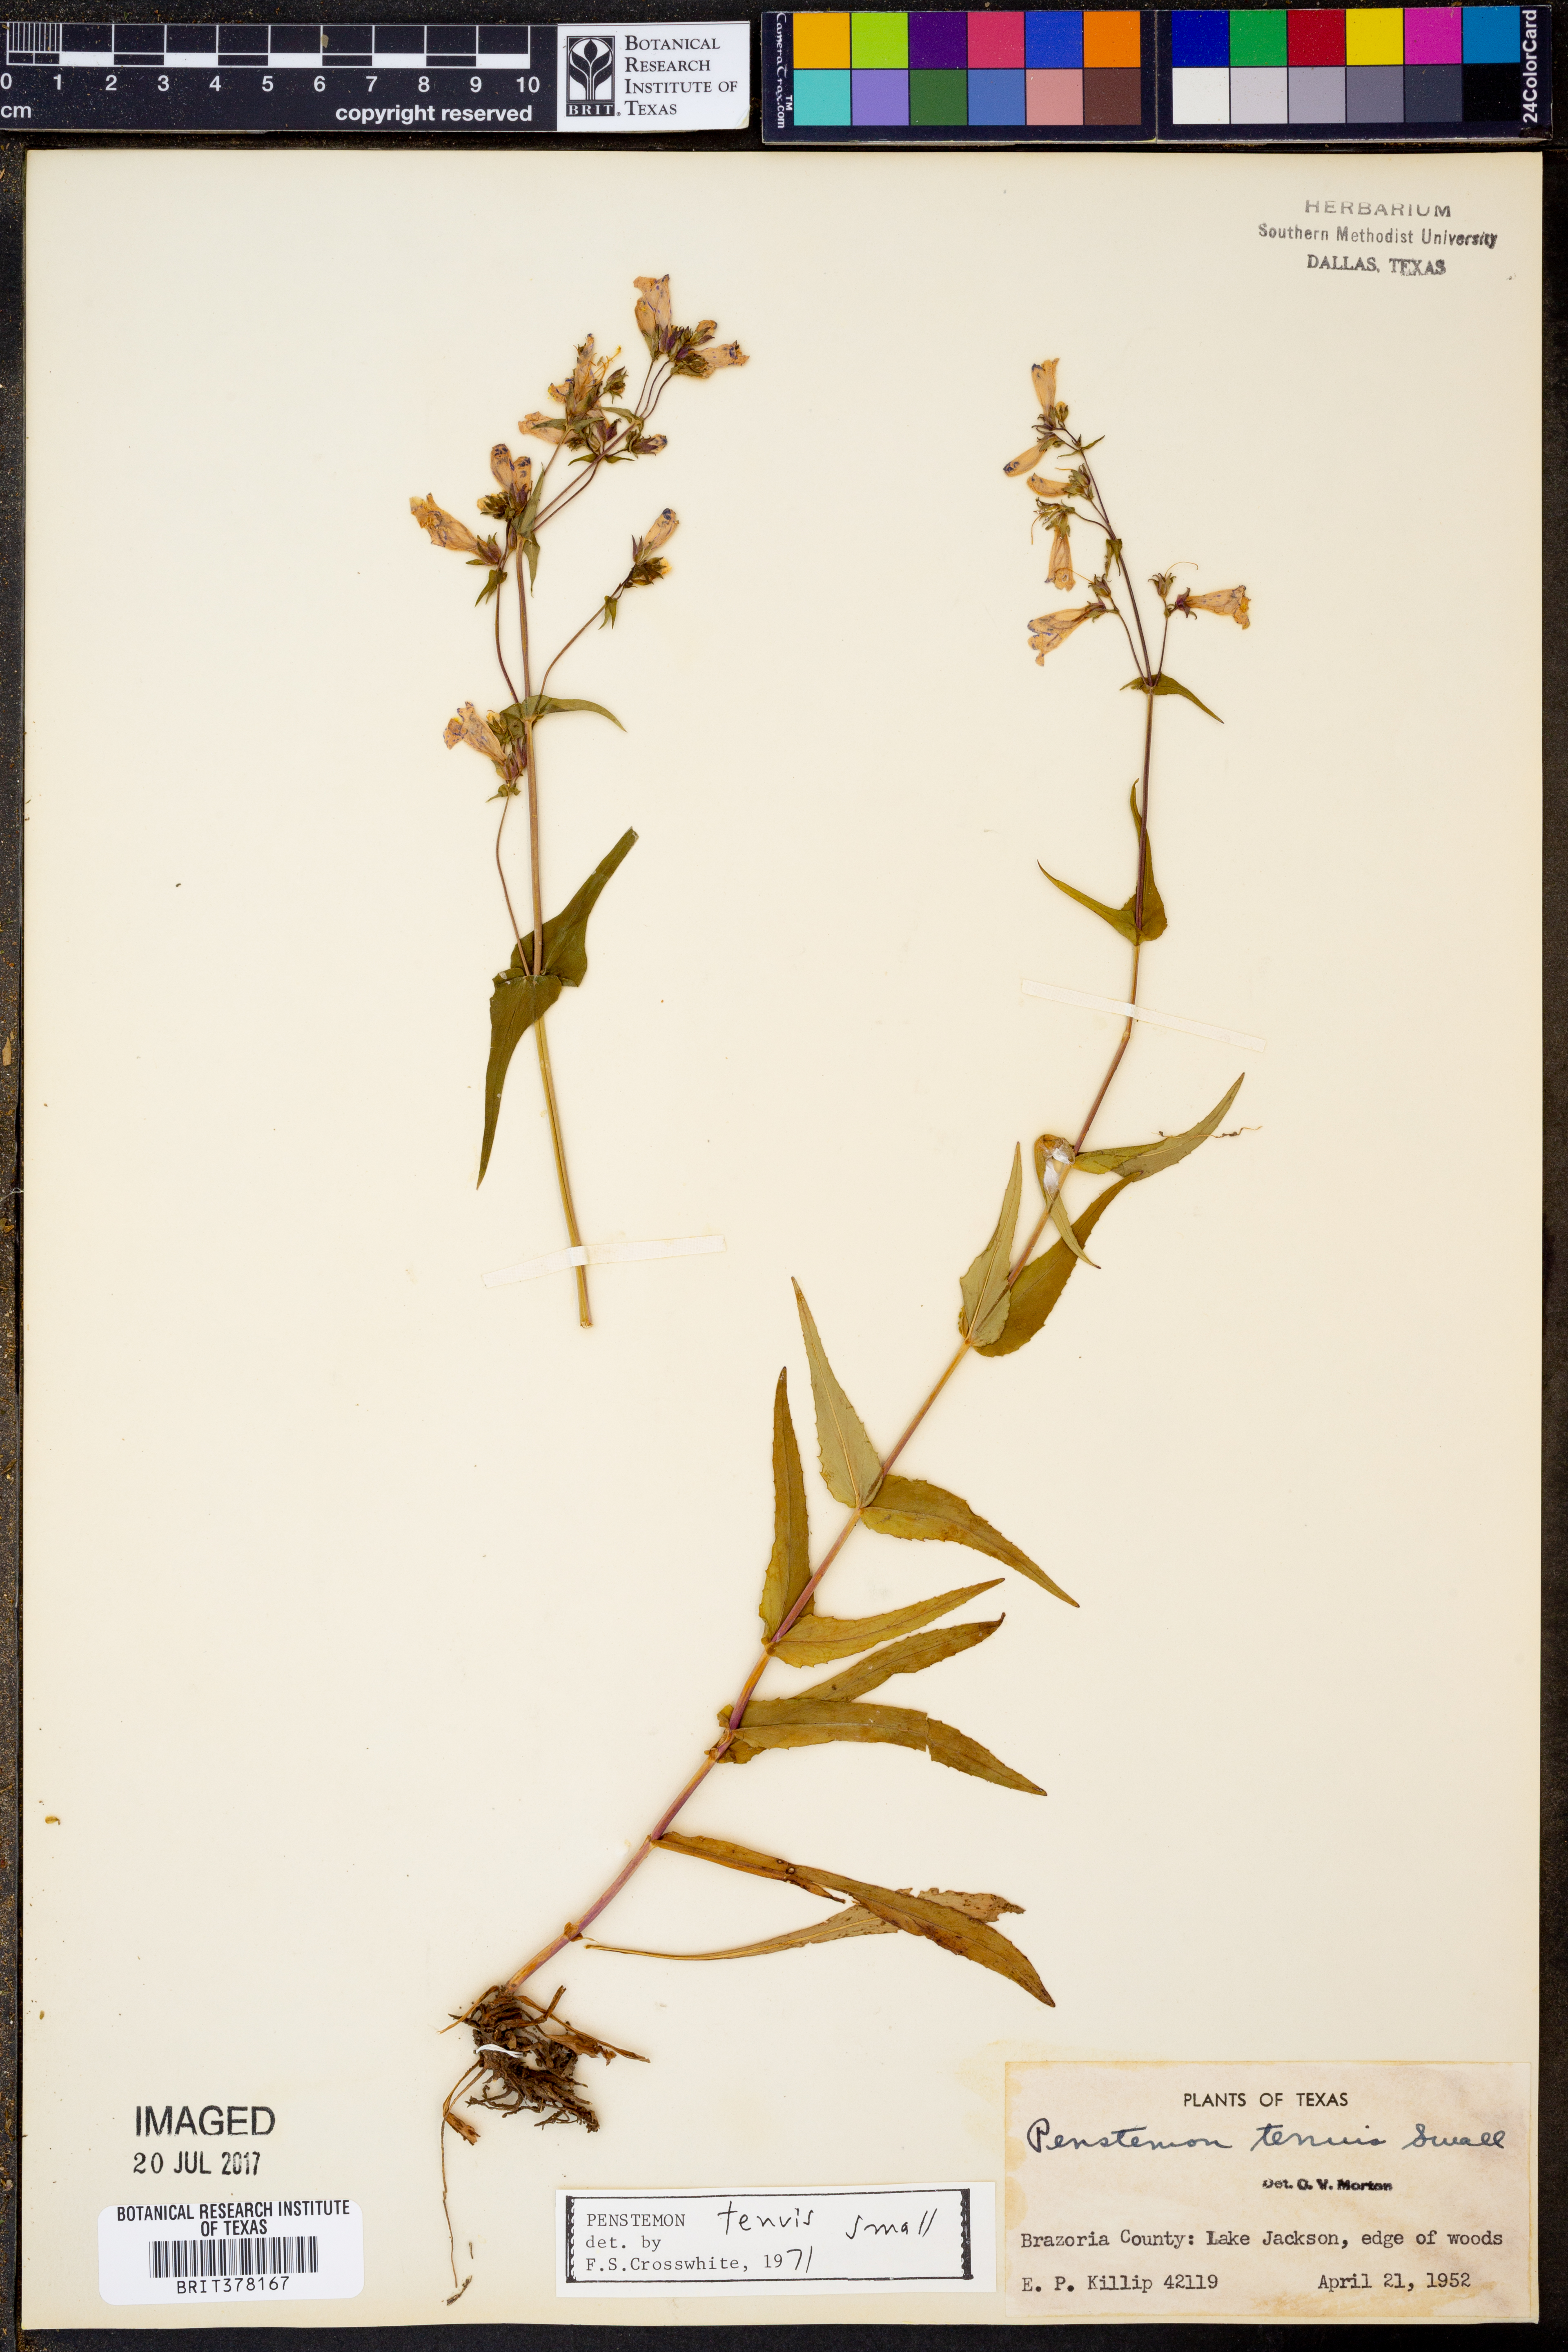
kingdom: Plantae
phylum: Tracheophyta
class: Magnoliopsida
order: Lamiales
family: Plantaginaceae
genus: Penstemon
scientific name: Penstemon tenuis
